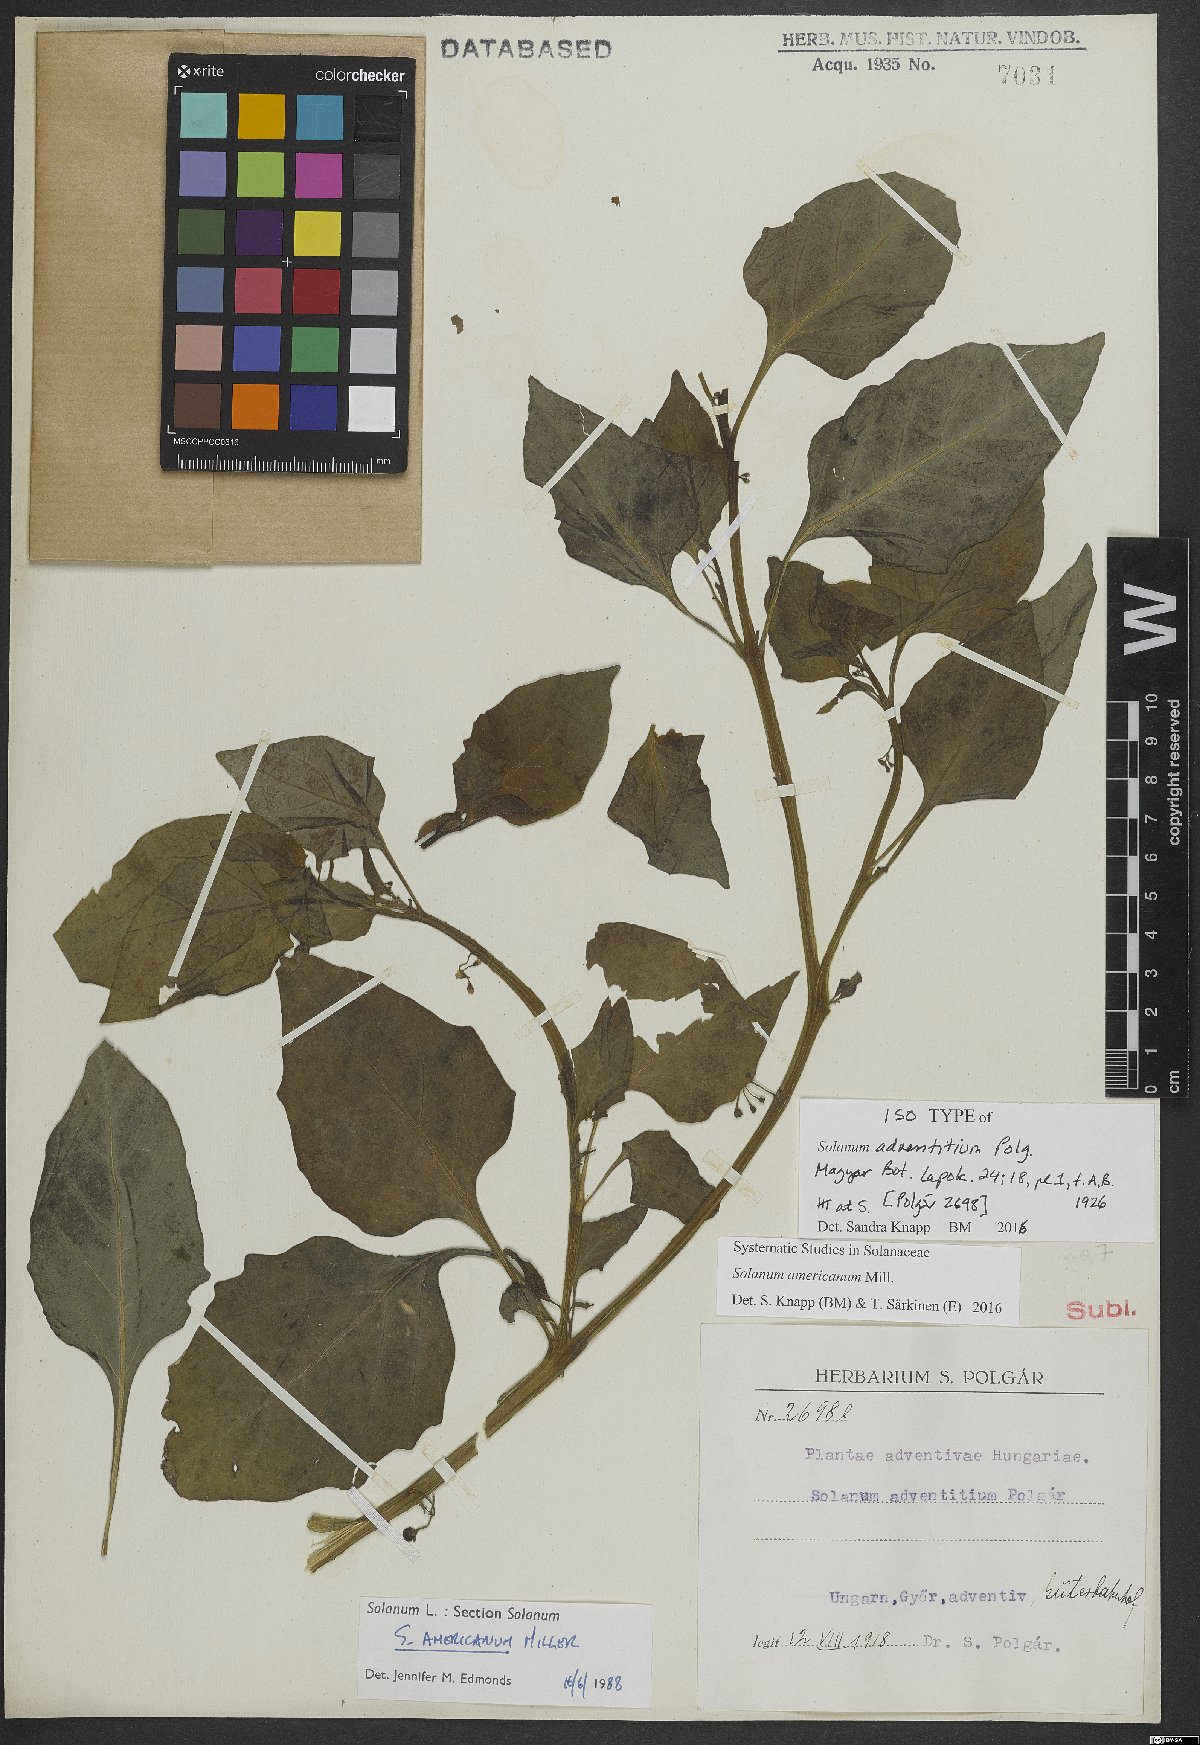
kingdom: Plantae
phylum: Tracheophyta
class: Magnoliopsida
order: Solanales
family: Solanaceae
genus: Solanum
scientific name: Solanum americanum
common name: American black nightshade
